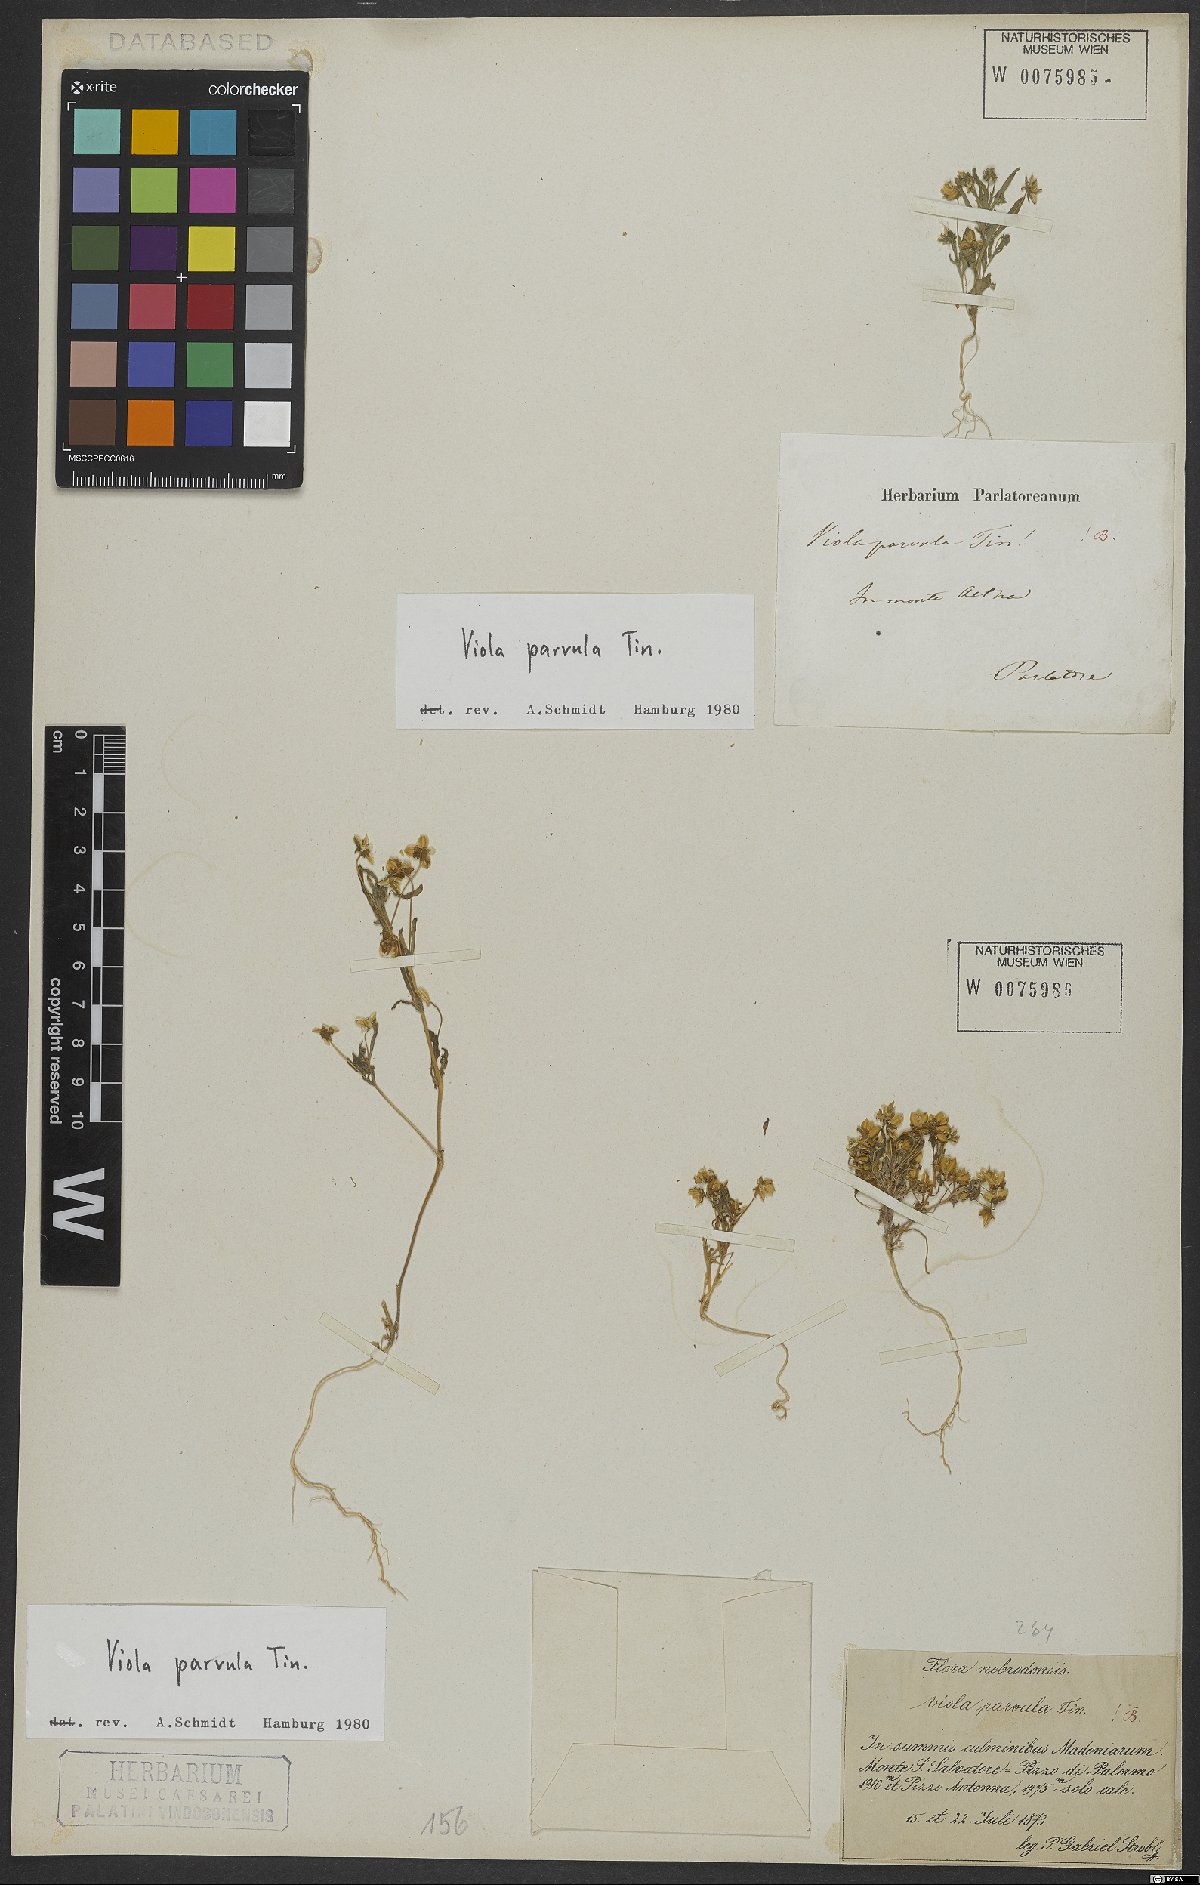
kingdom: Plantae
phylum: Tracheophyta
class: Magnoliopsida
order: Malpighiales
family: Violaceae
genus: Viola
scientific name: Viola parvula
